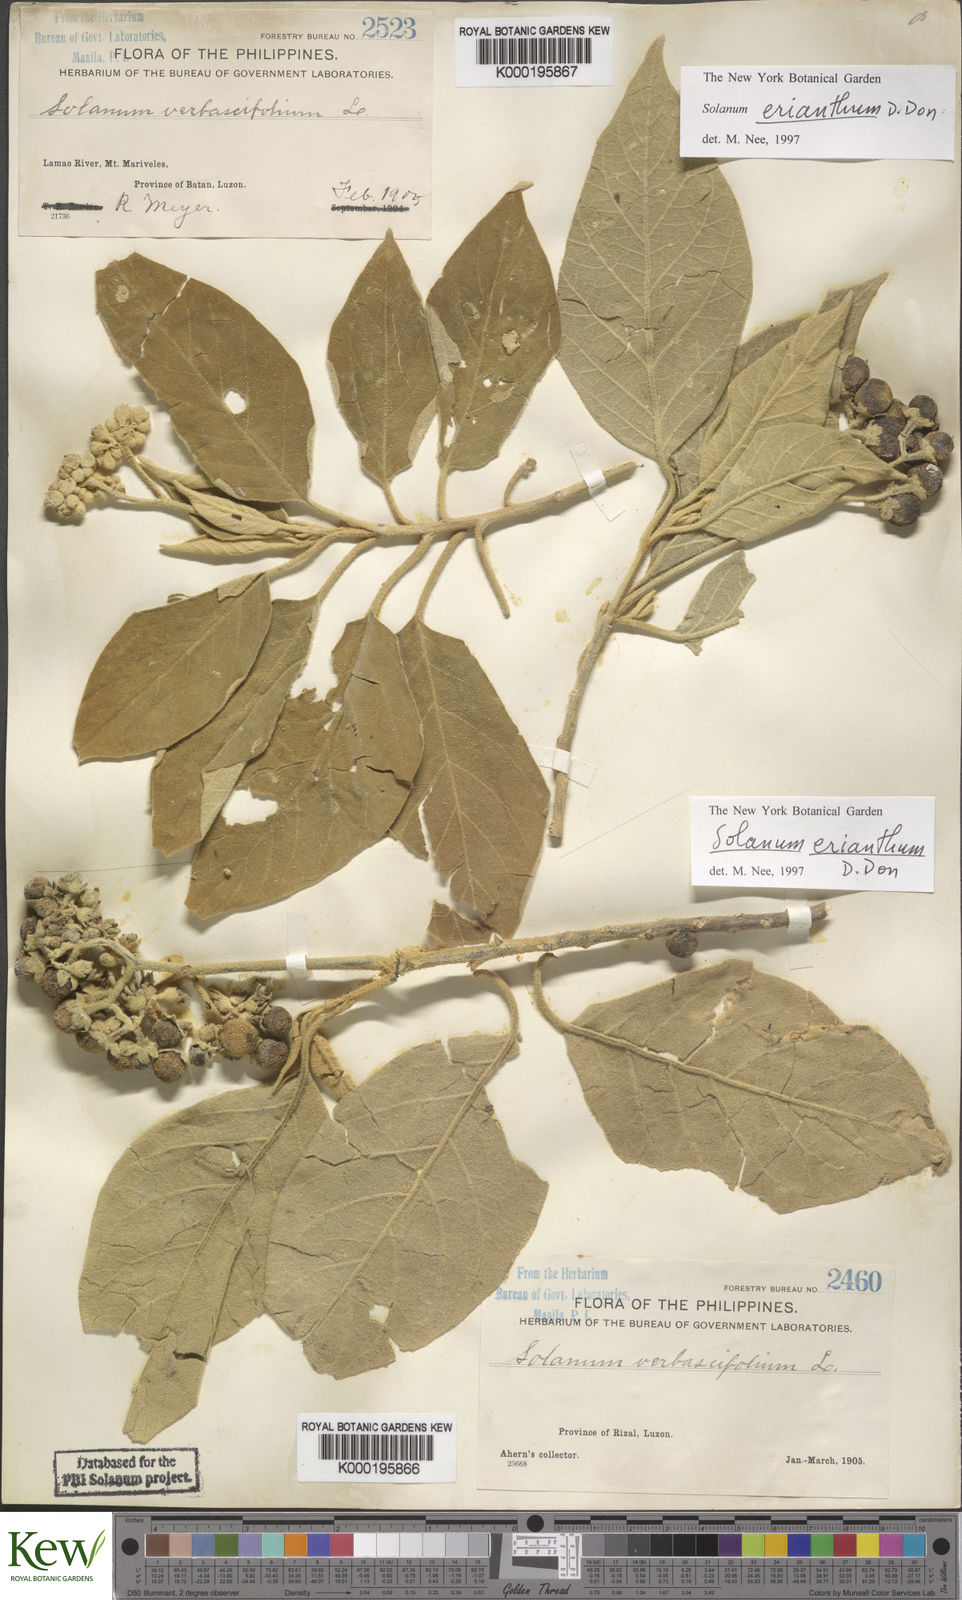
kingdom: Plantae
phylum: Tracheophyta
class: Magnoliopsida
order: Solanales
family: Solanaceae
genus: Solanum
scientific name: Solanum erianthum
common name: Tobacco-tree
